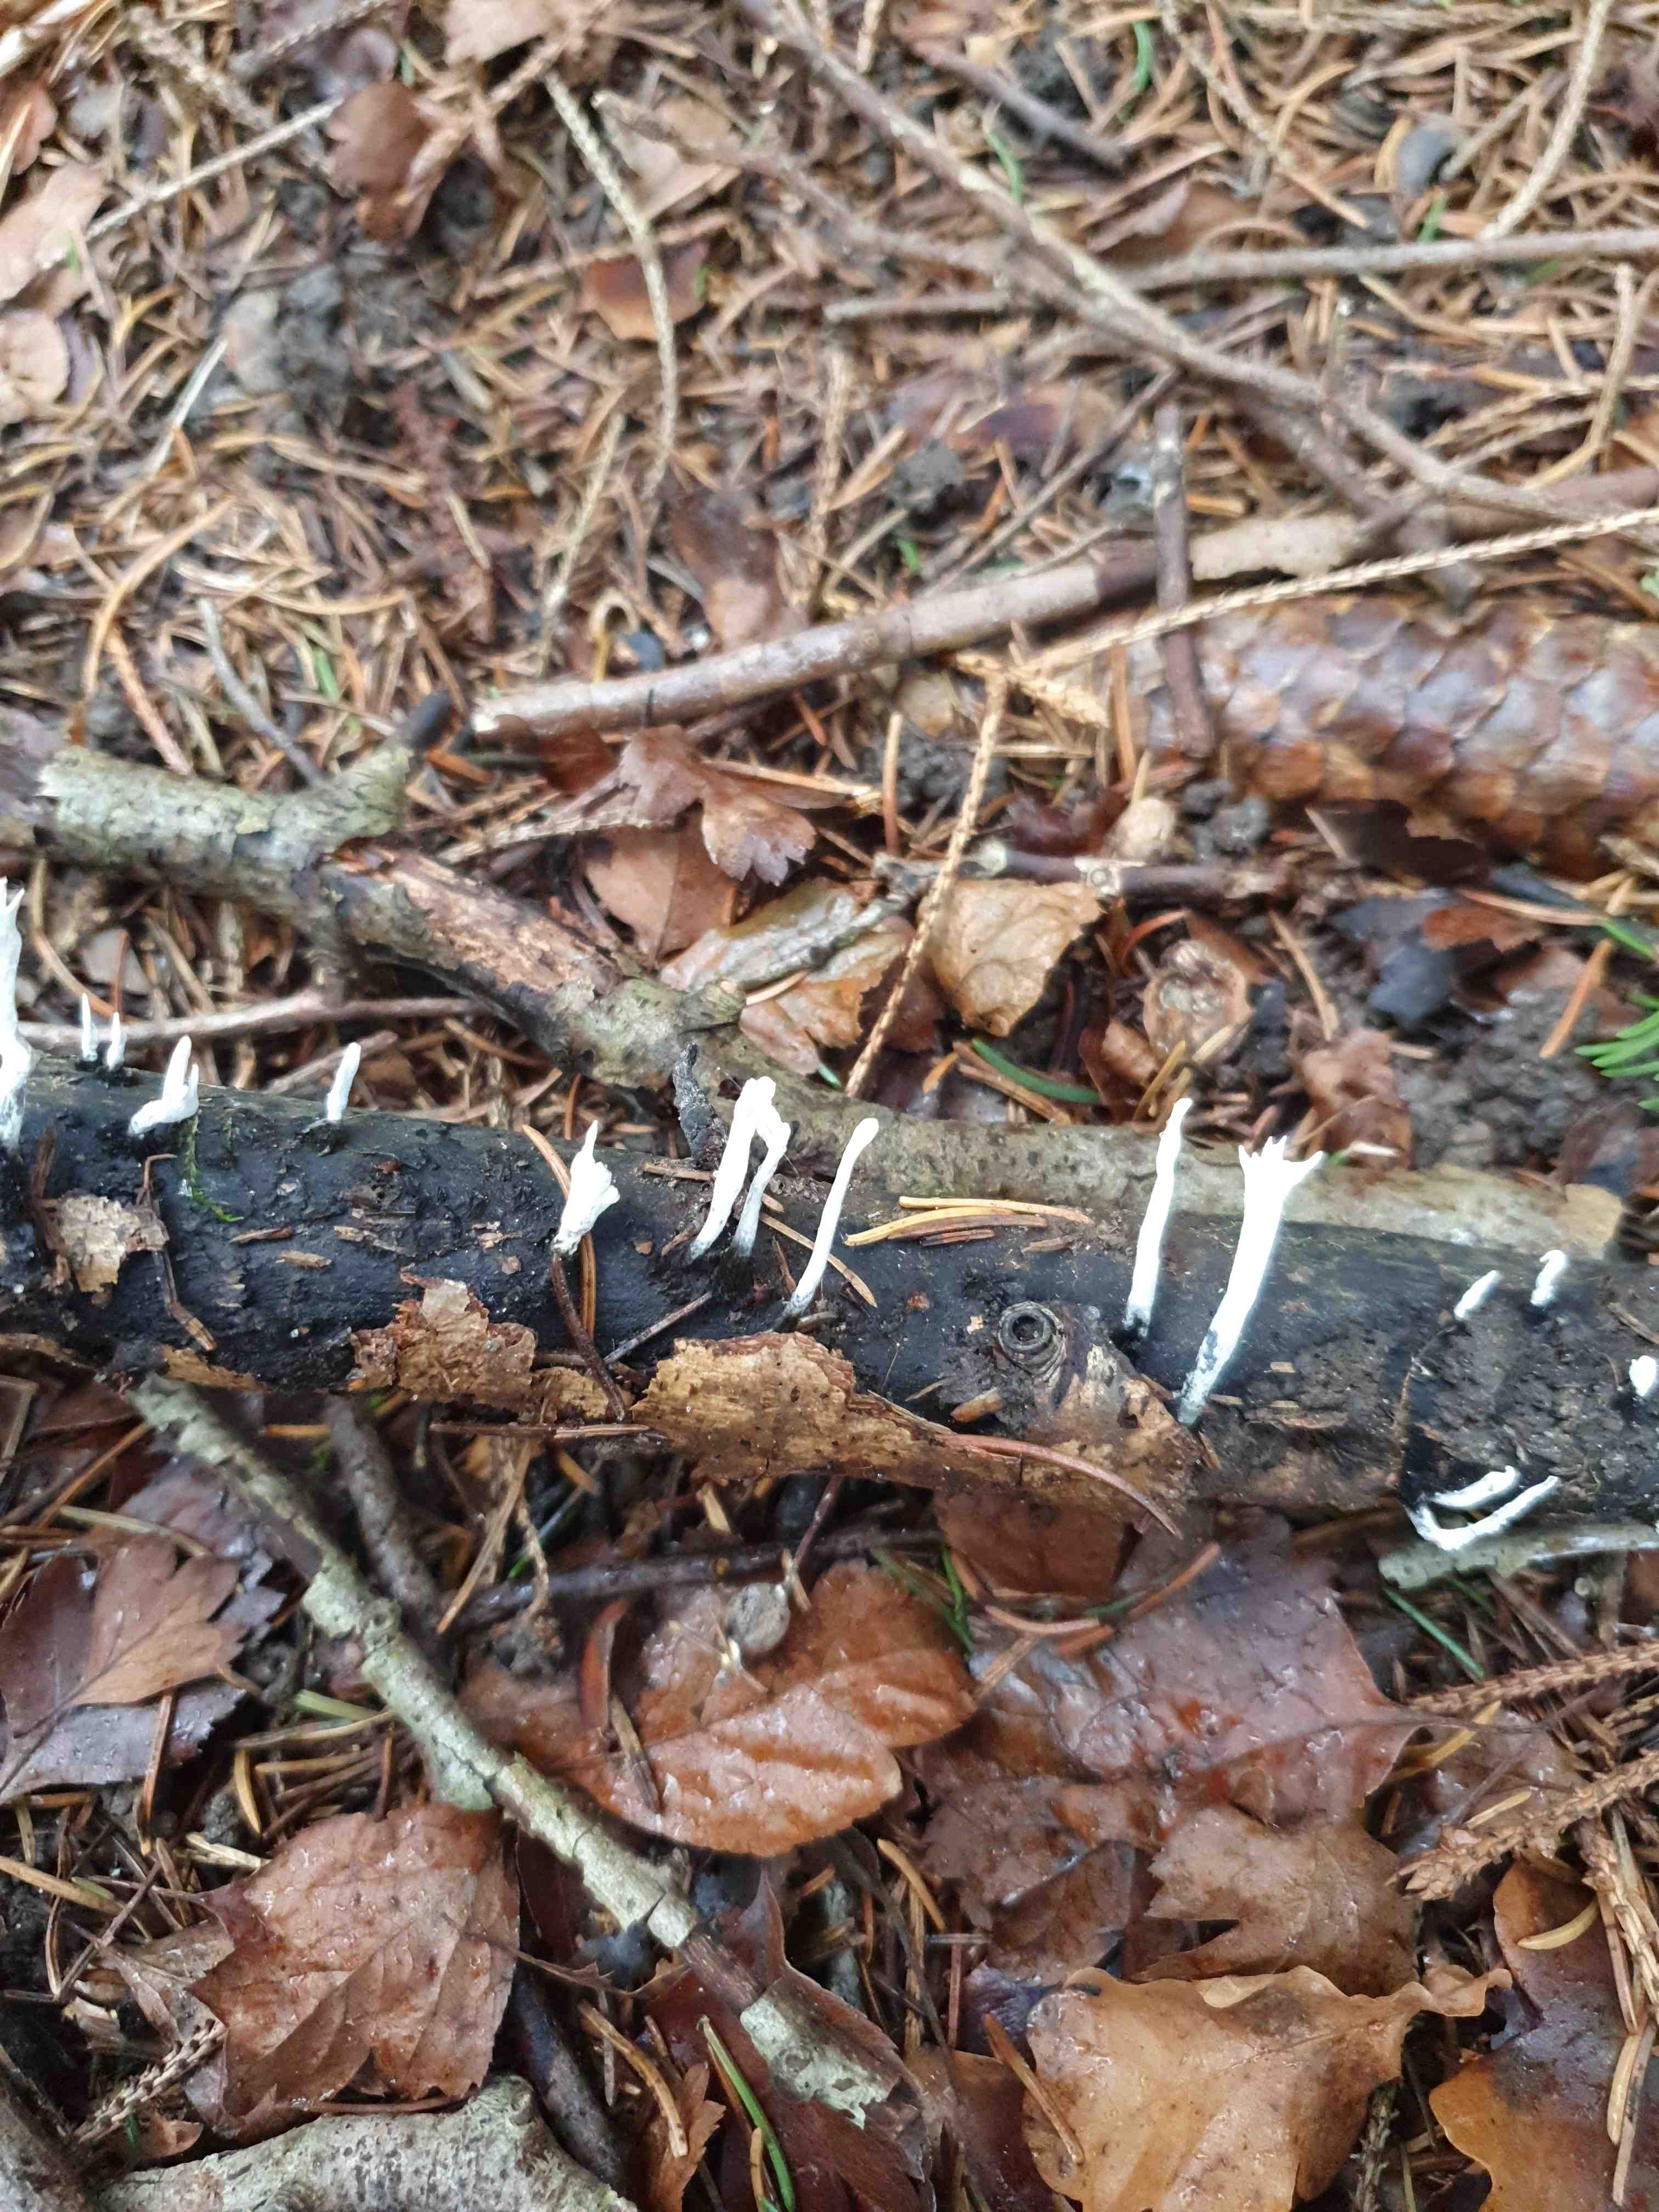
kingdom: Fungi
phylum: Ascomycota
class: Sordariomycetes
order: Xylariales
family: Xylariaceae
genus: Xylaria
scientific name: Xylaria hypoxylon
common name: grenet stødsvamp
